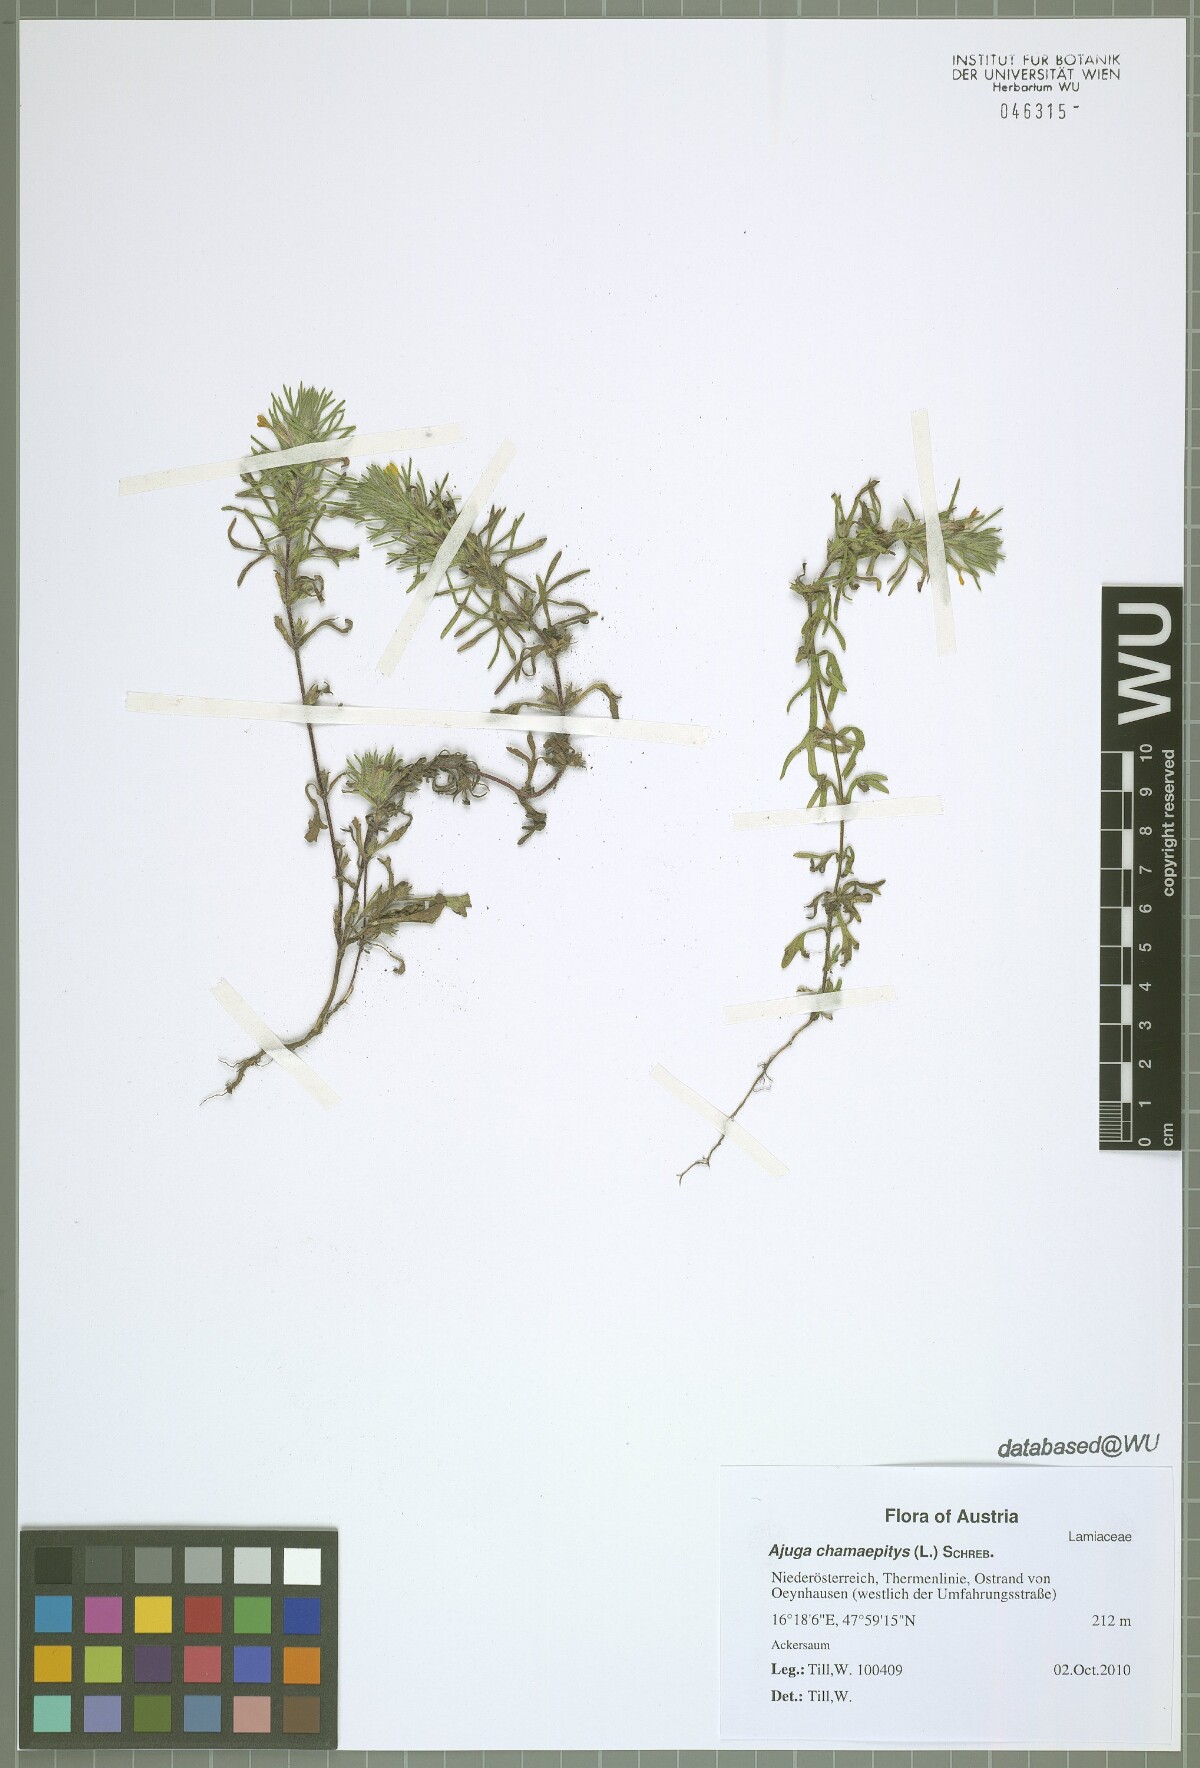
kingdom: Plantae
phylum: Tracheophyta
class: Magnoliopsida
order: Lamiales
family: Lamiaceae
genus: Ajuga
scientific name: Ajuga chamaepitys
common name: Ground-pine
